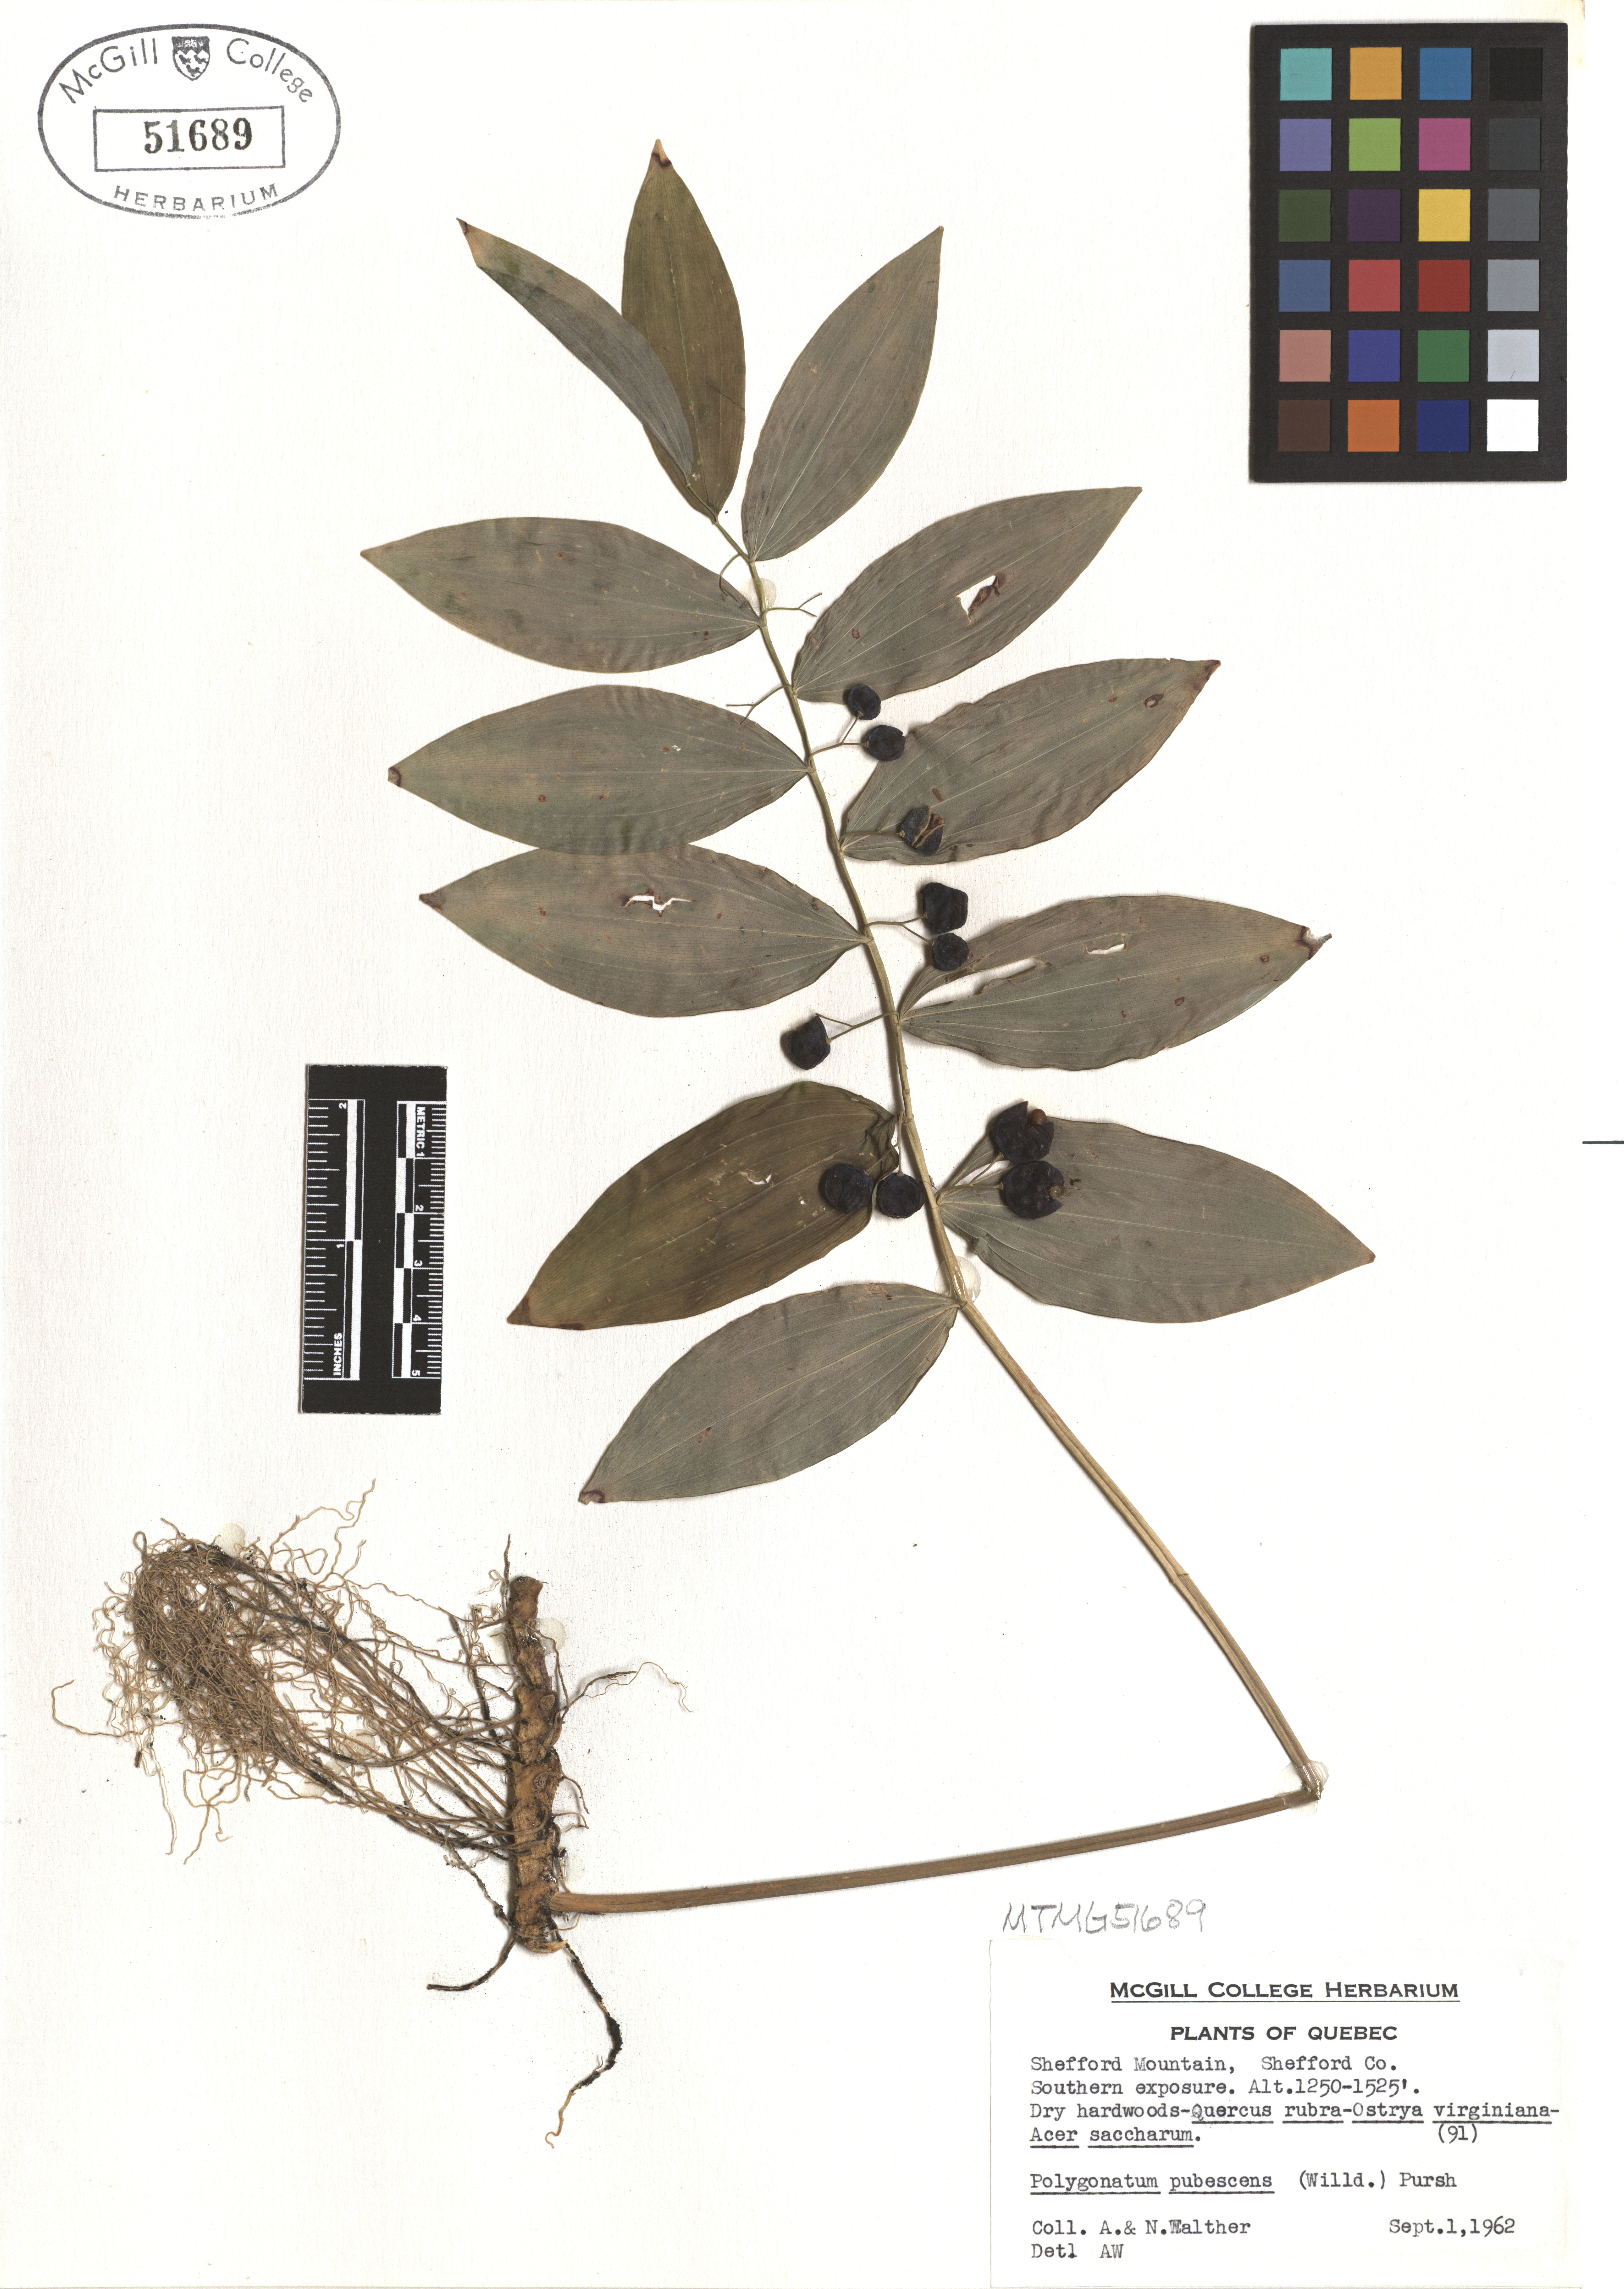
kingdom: Plantae
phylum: Tracheophyta
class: Liliopsida
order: Asparagales
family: Asparagaceae
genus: Polygonatum
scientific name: Polygonatum pubescens
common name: Downy solomon's seal
